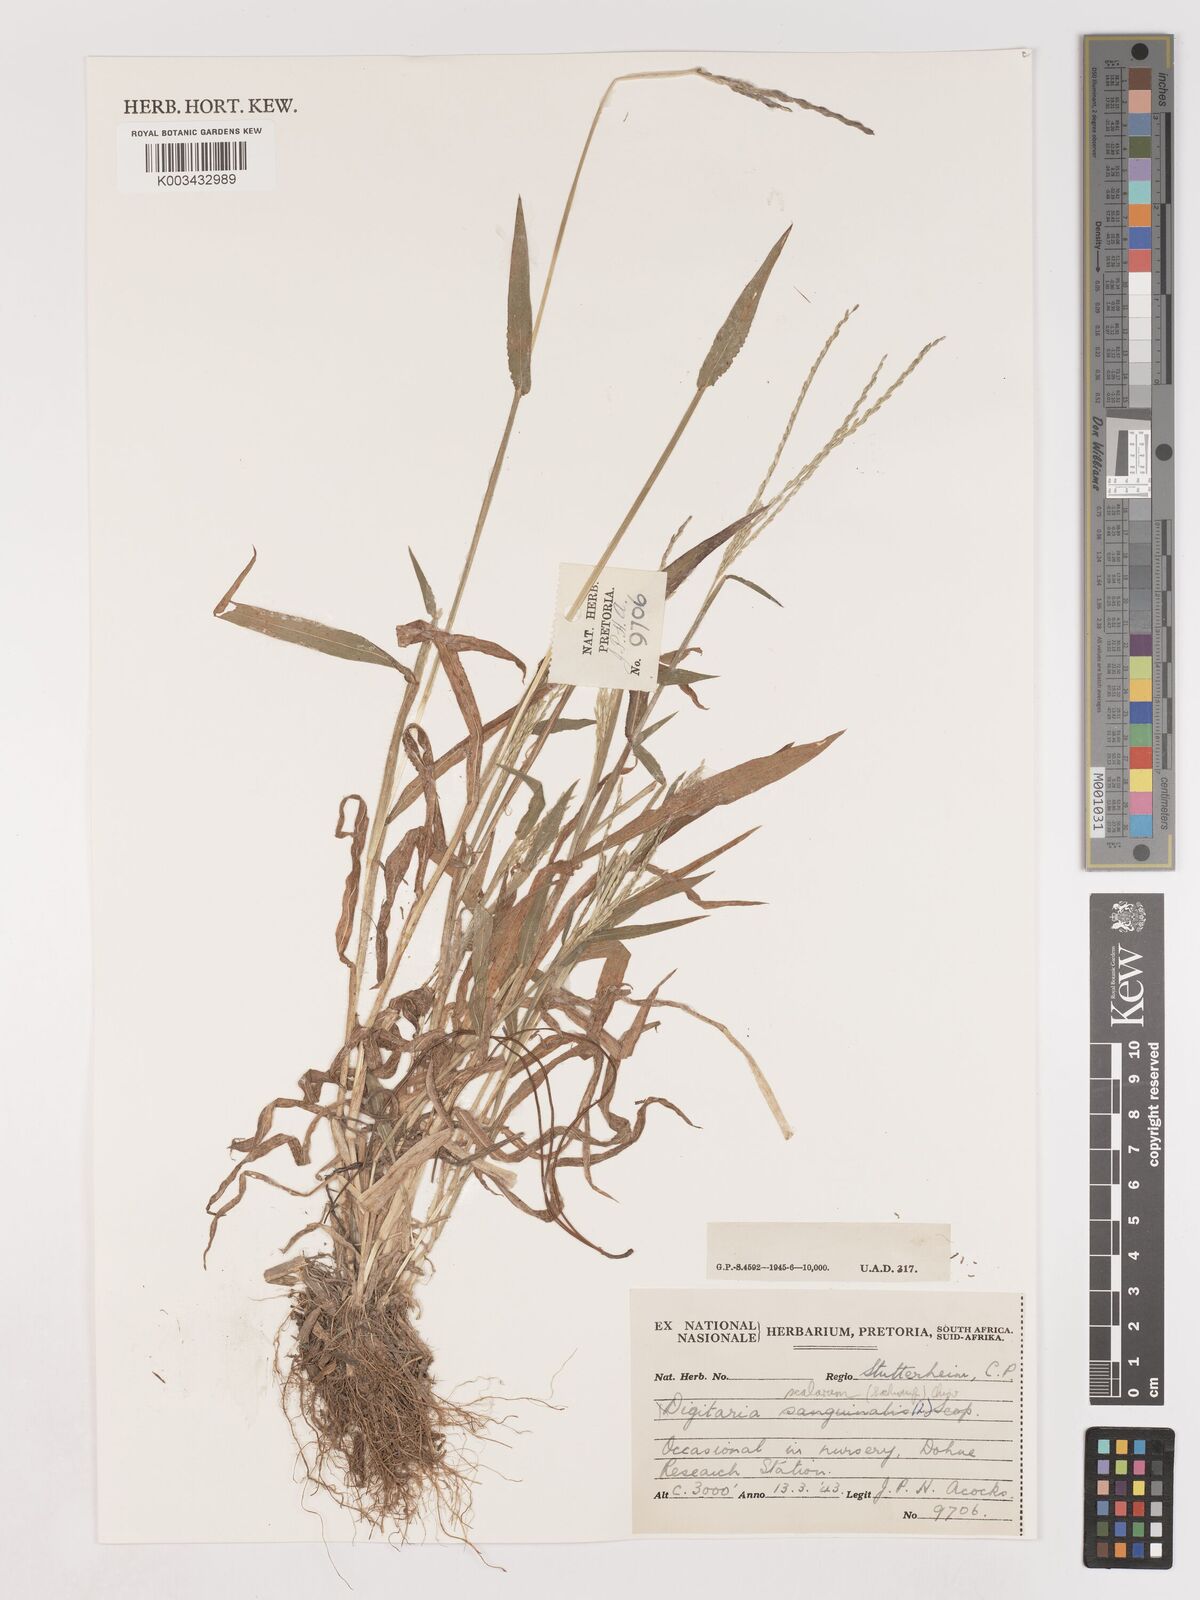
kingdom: Plantae
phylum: Tracheophyta
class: Liliopsida
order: Poales
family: Poaceae
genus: Digitaria
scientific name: Digitaria abyssinica
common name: African couchgrass
